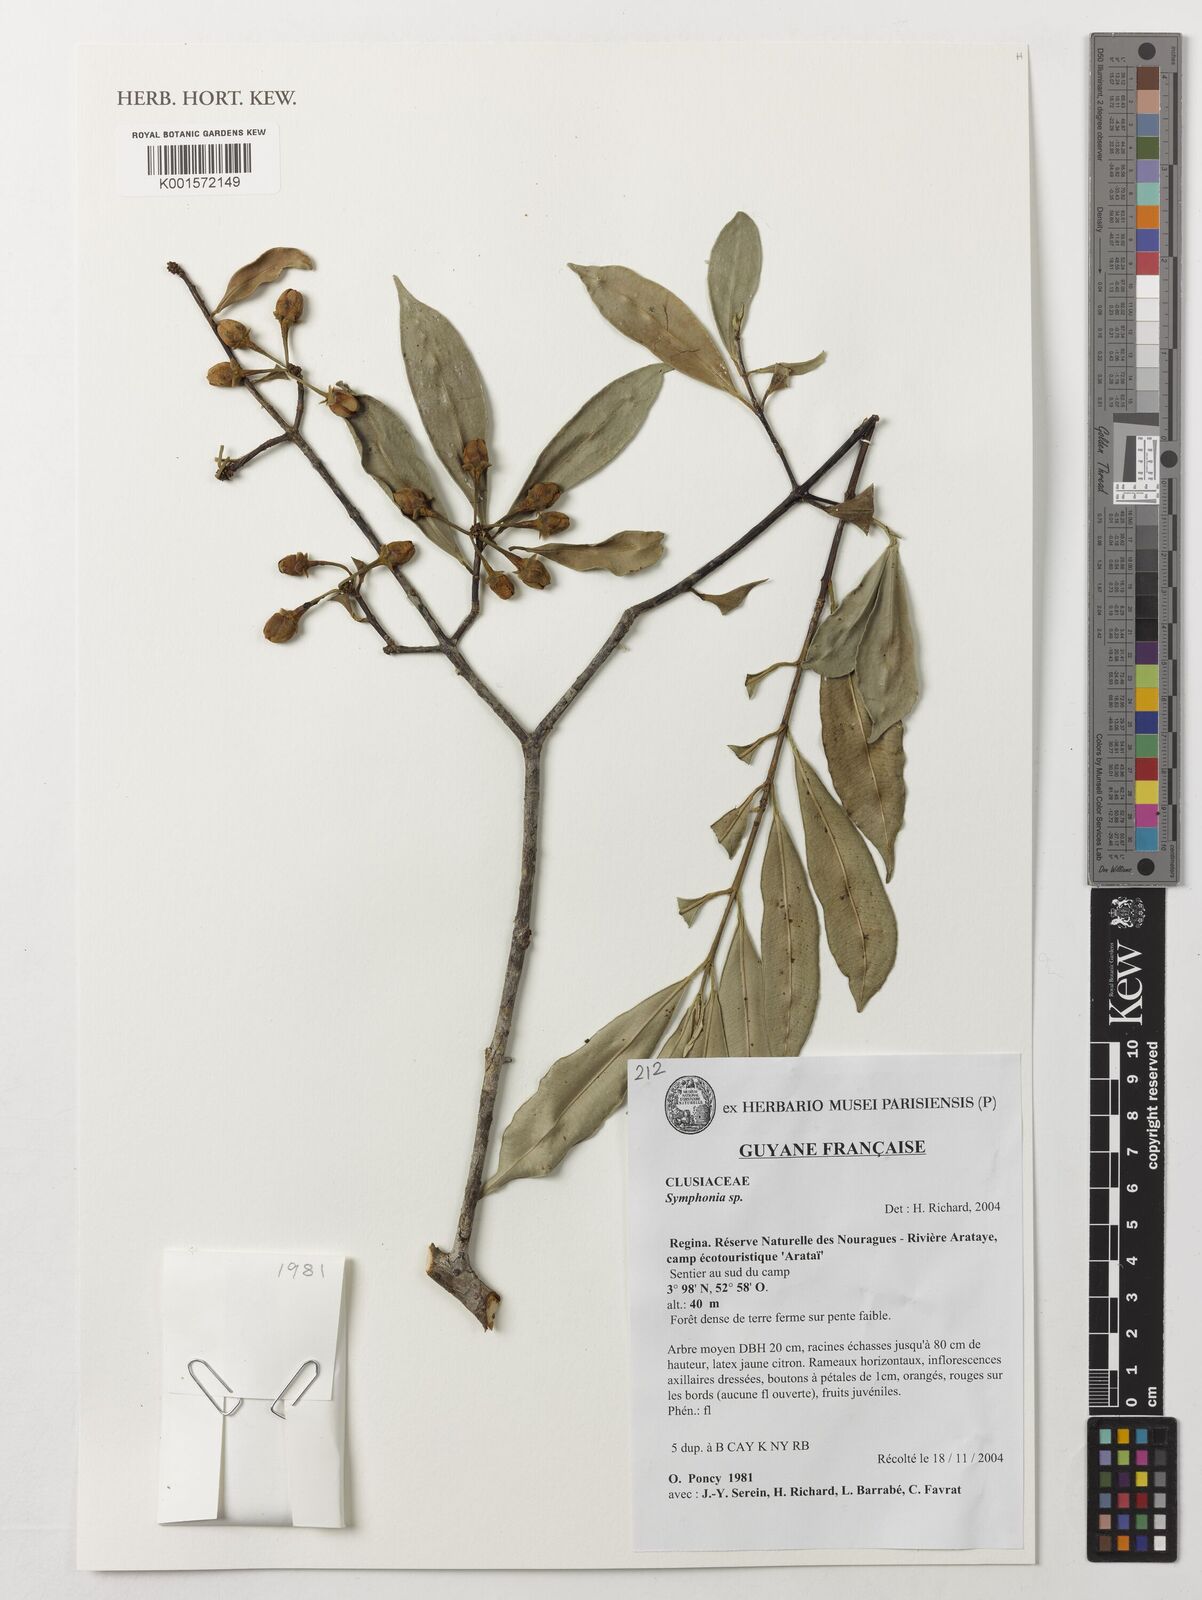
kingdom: Plantae
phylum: Tracheophyta
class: Magnoliopsida
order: Malpighiales
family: Clusiaceae
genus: Symphonia
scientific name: Symphonia
